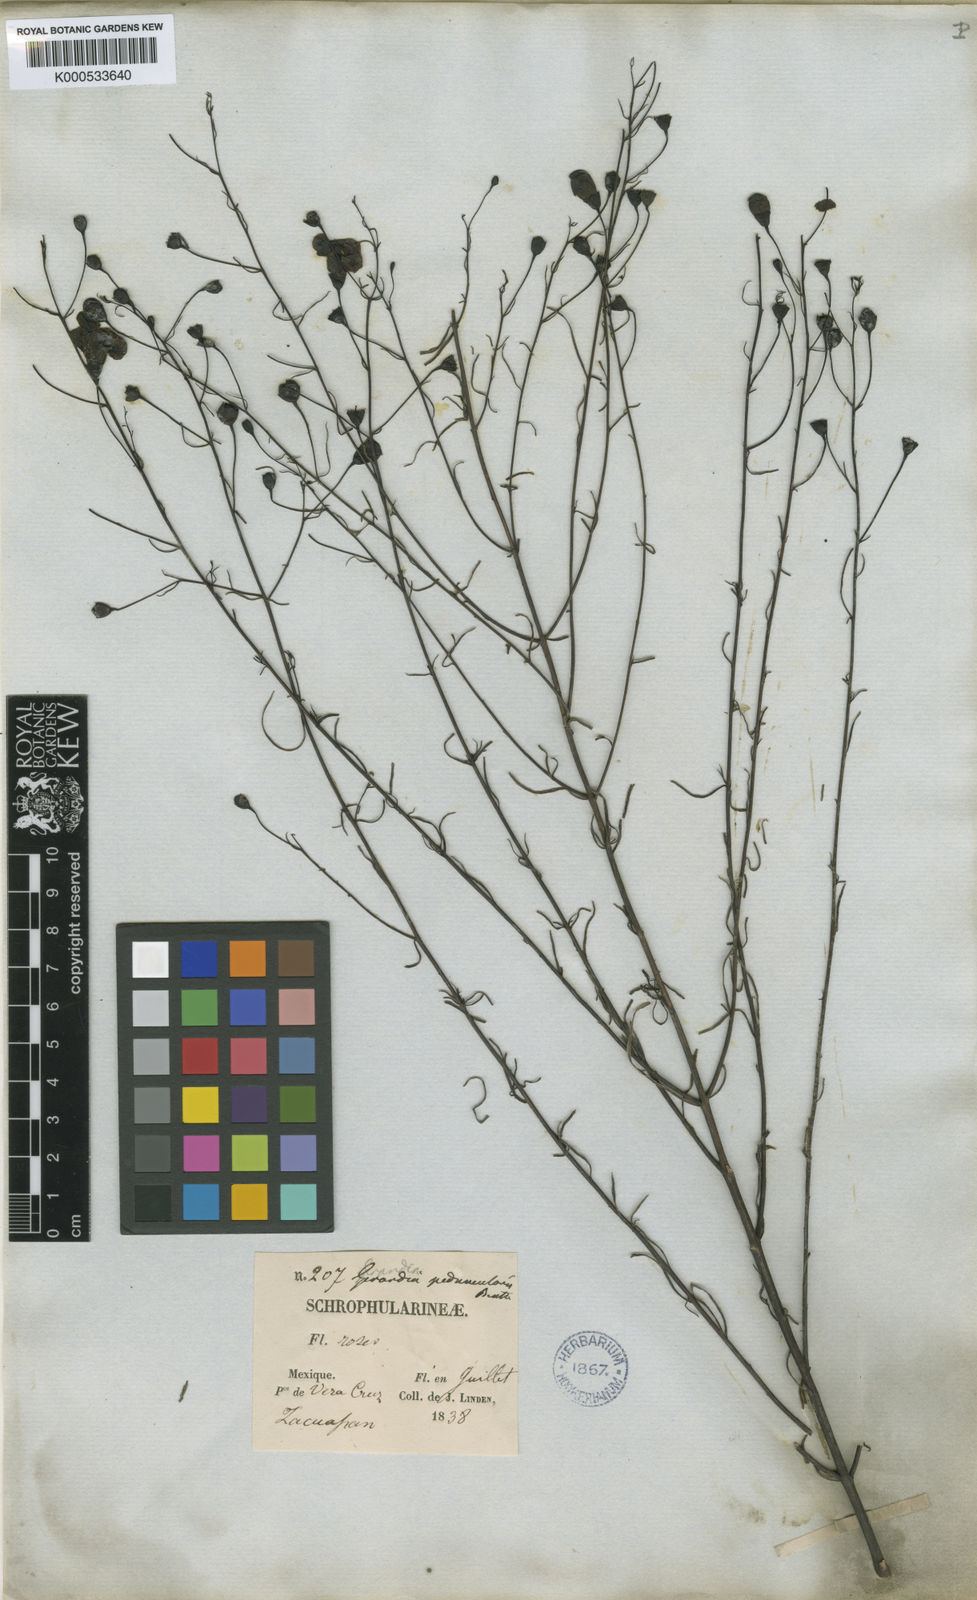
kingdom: Plantae
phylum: Tracheophyta
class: Magnoliopsida
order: Lamiales
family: Orobanchaceae
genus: Agalinis
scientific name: Agalinis peduncularis
